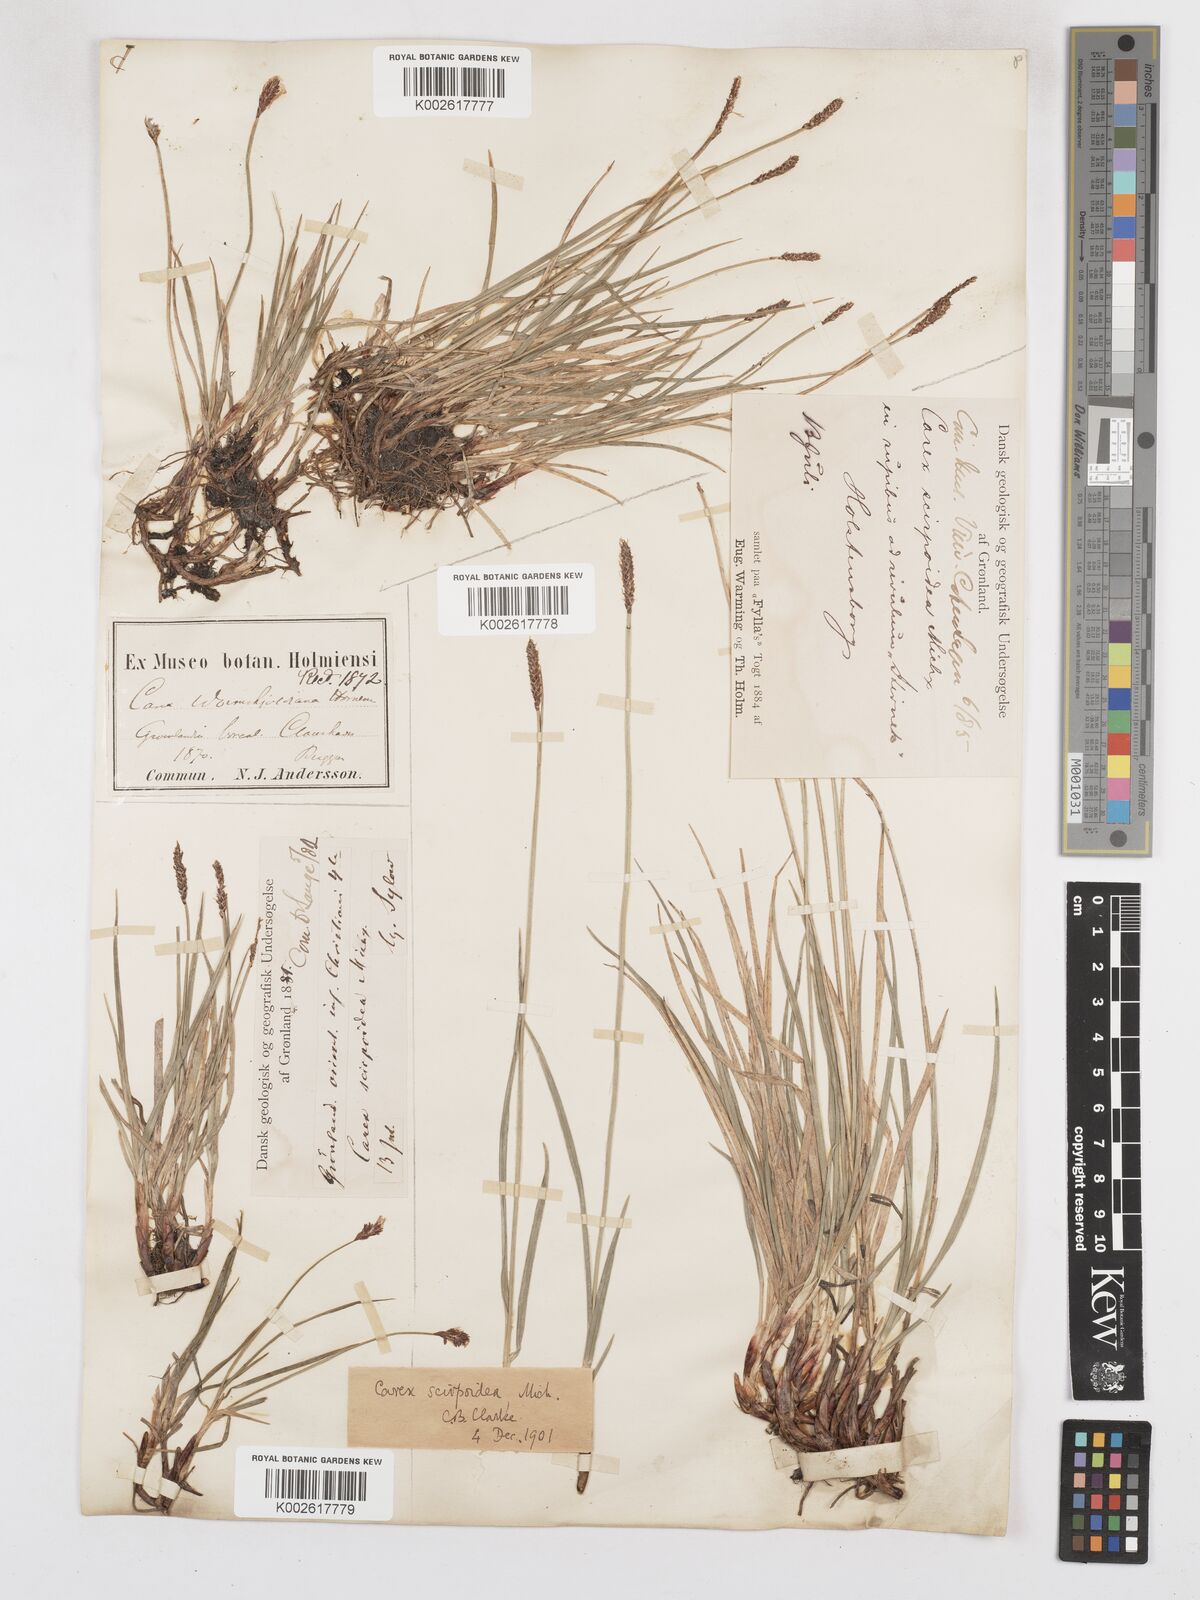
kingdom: Plantae
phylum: Tracheophyta
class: Liliopsida
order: Poales
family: Cyperaceae
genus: Carex
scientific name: Carex scirpoidea
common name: Canada single-spike sedge
